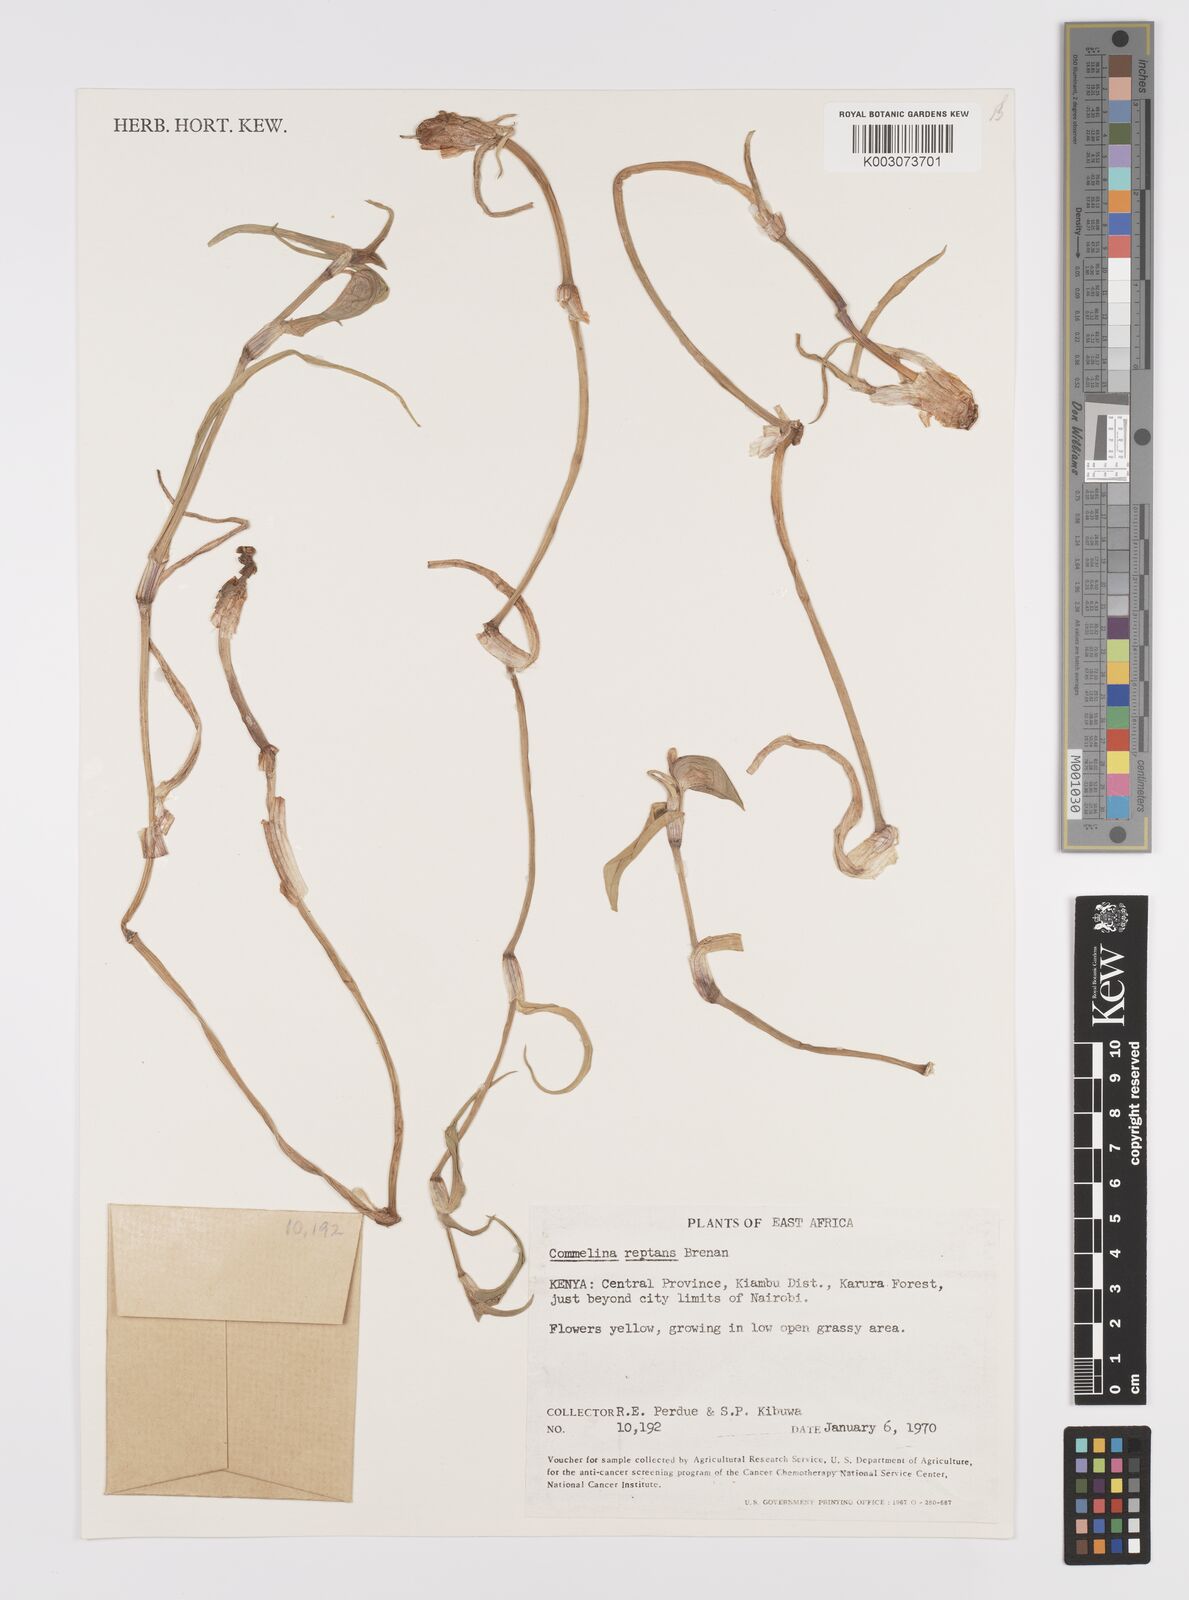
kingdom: Plantae
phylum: Tracheophyta
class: Liliopsida
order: Commelinales
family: Commelinaceae
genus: Commelina
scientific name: Commelina reptans
